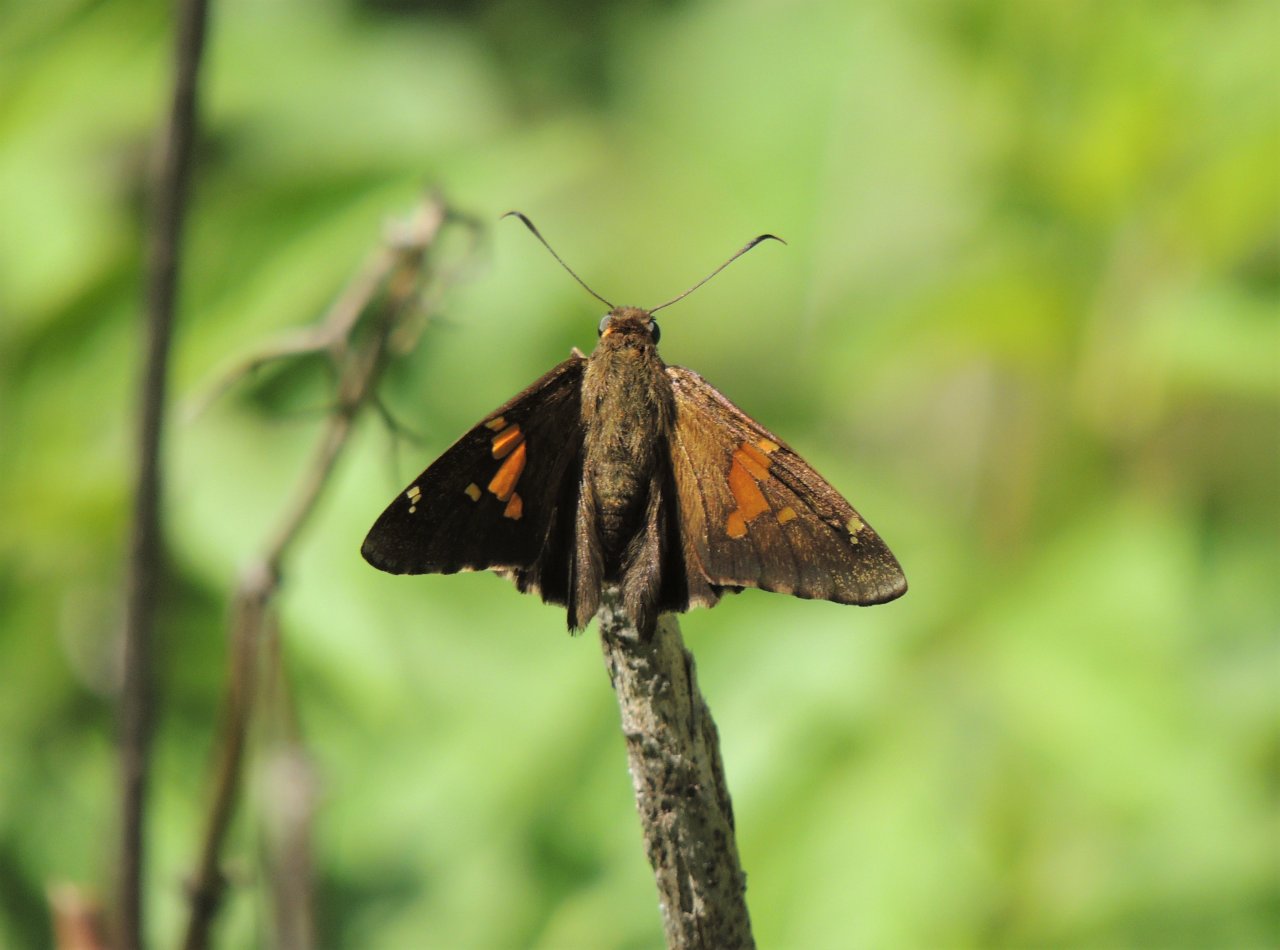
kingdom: Animalia
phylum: Arthropoda
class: Insecta
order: Lepidoptera
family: Hesperiidae
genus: Epargyreus
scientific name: Epargyreus clarus
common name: Silver-spotted Skipper
